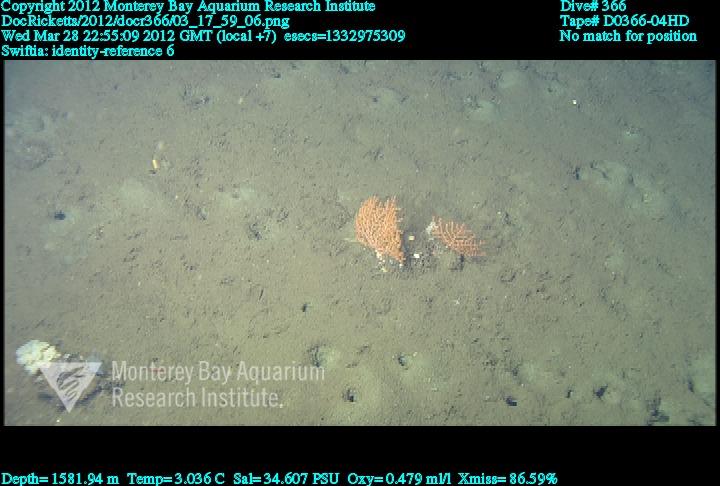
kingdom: Animalia
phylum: Cnidaria
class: Anthozoa
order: Malacalcyonacea
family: Plexauridae
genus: Swiftia
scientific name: Swiftia
